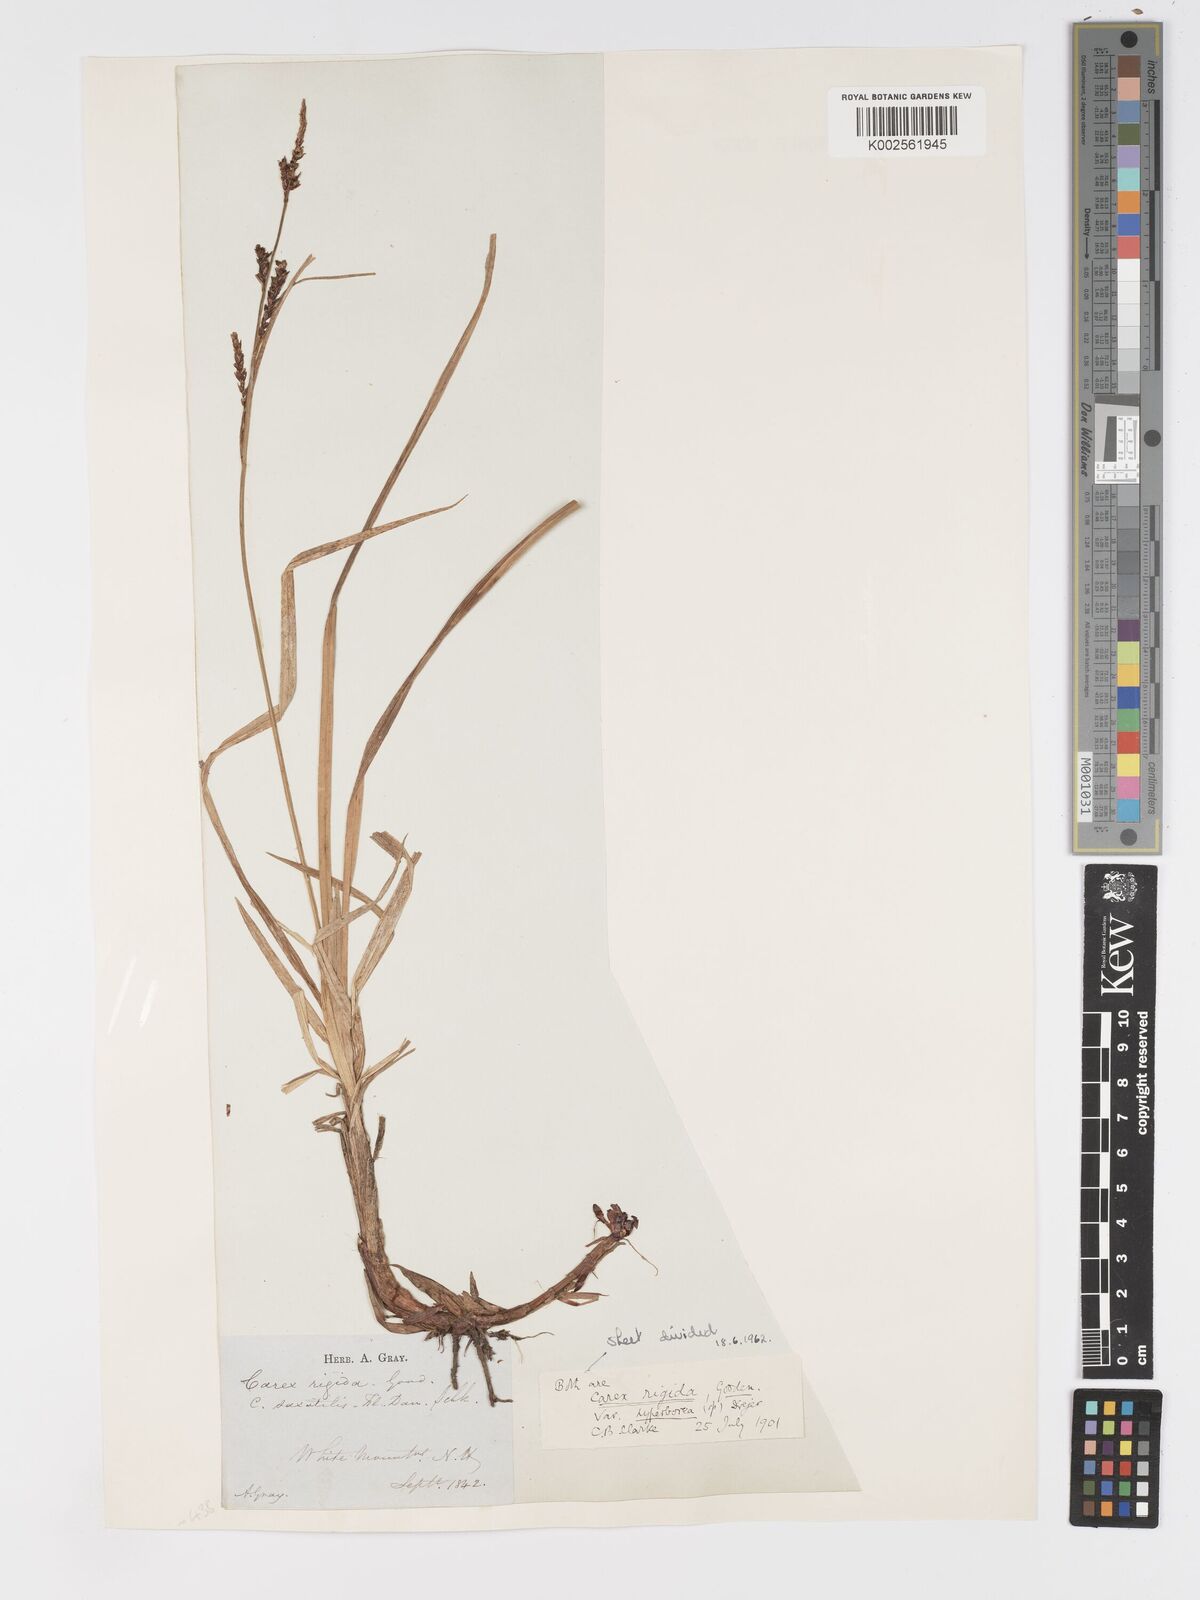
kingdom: Plantae
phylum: Tracheophyta
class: Liliopsida
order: Poales
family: Cyperaceae
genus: Carex
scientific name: Carex bigelowii
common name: Stiff sedge
